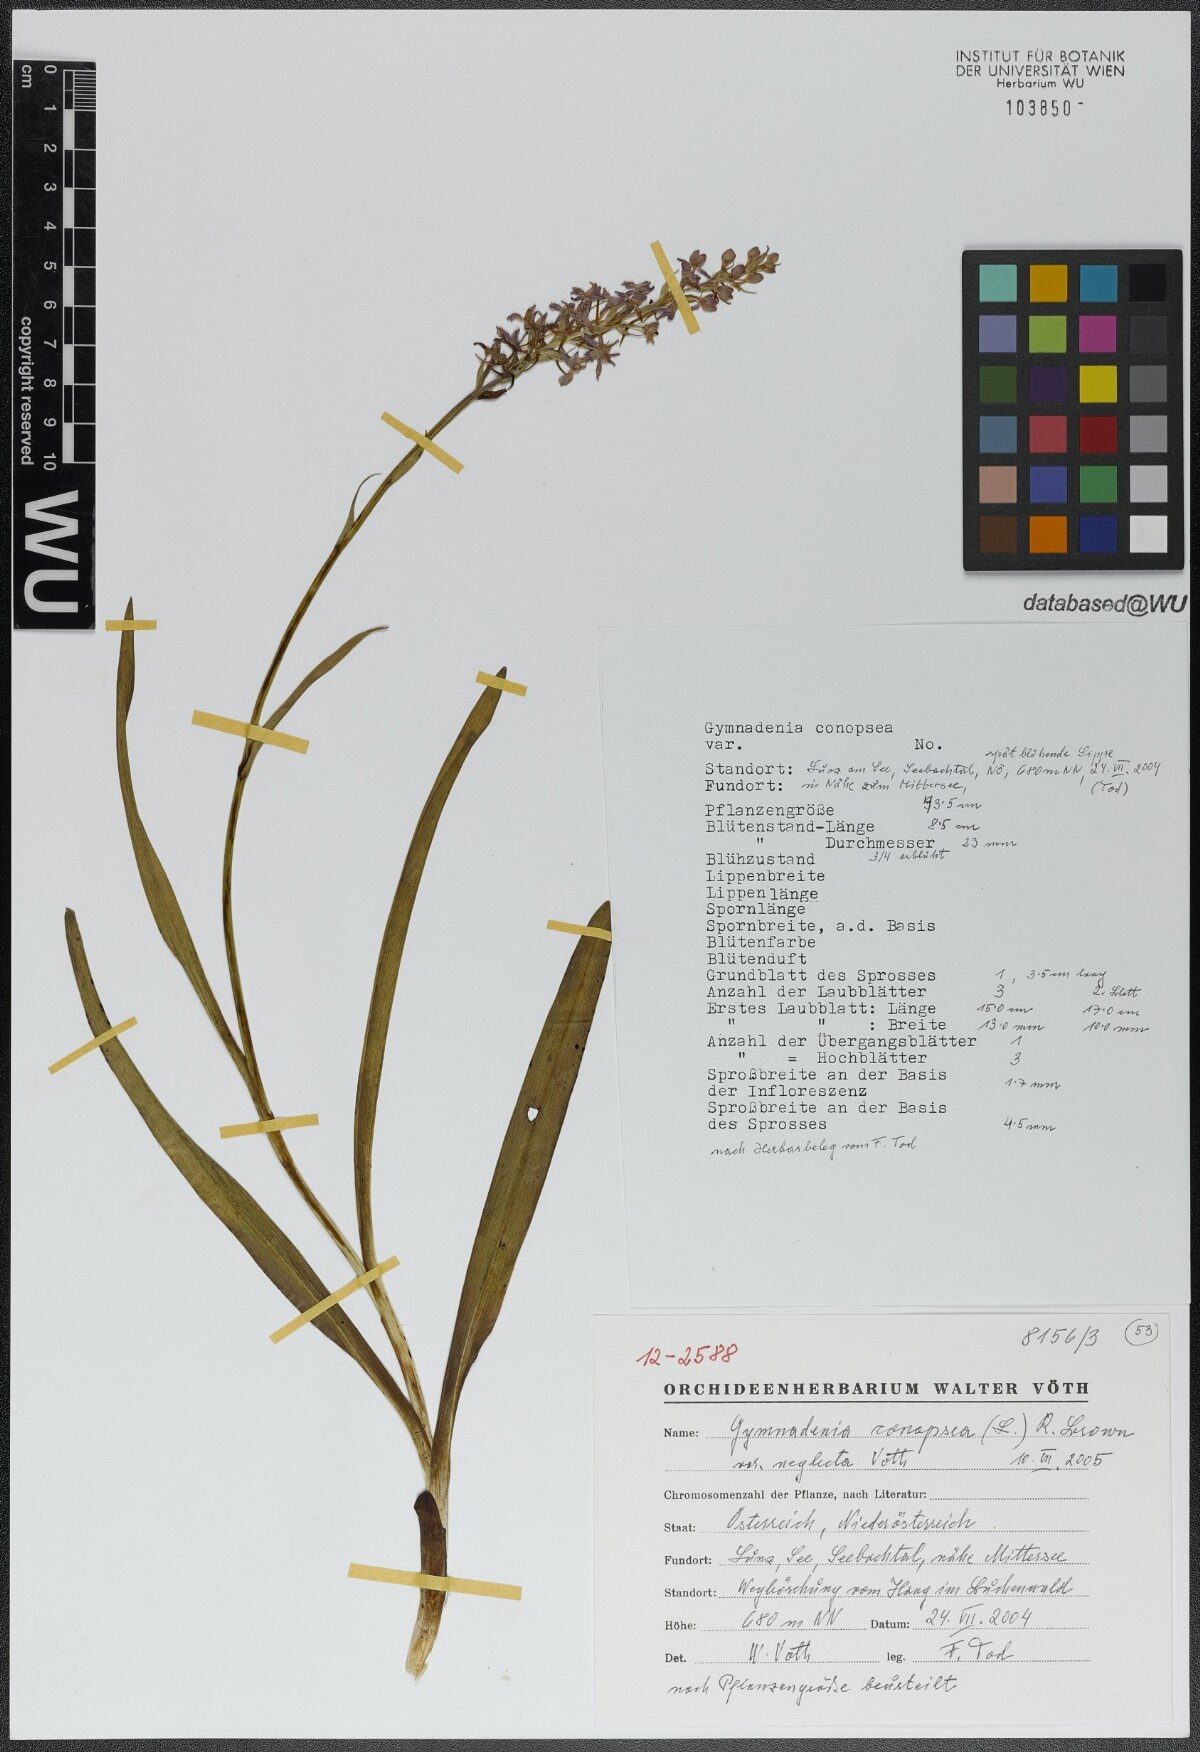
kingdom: Plantae
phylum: Tracheophyta
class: Liliopsida
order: Asparagales
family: Orchidaceae
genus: Gymnadenia
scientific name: Gymnadenia conopsea
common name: Fragrant orchid
